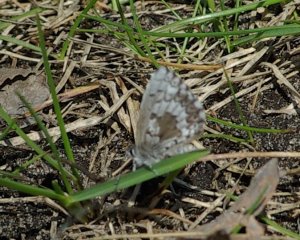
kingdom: Animalia
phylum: Arthropoda
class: Insecta
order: Lepidoptera
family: Lycaenidae
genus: Celastrina
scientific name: Celastrina lucia
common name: Northern Spring Azure
